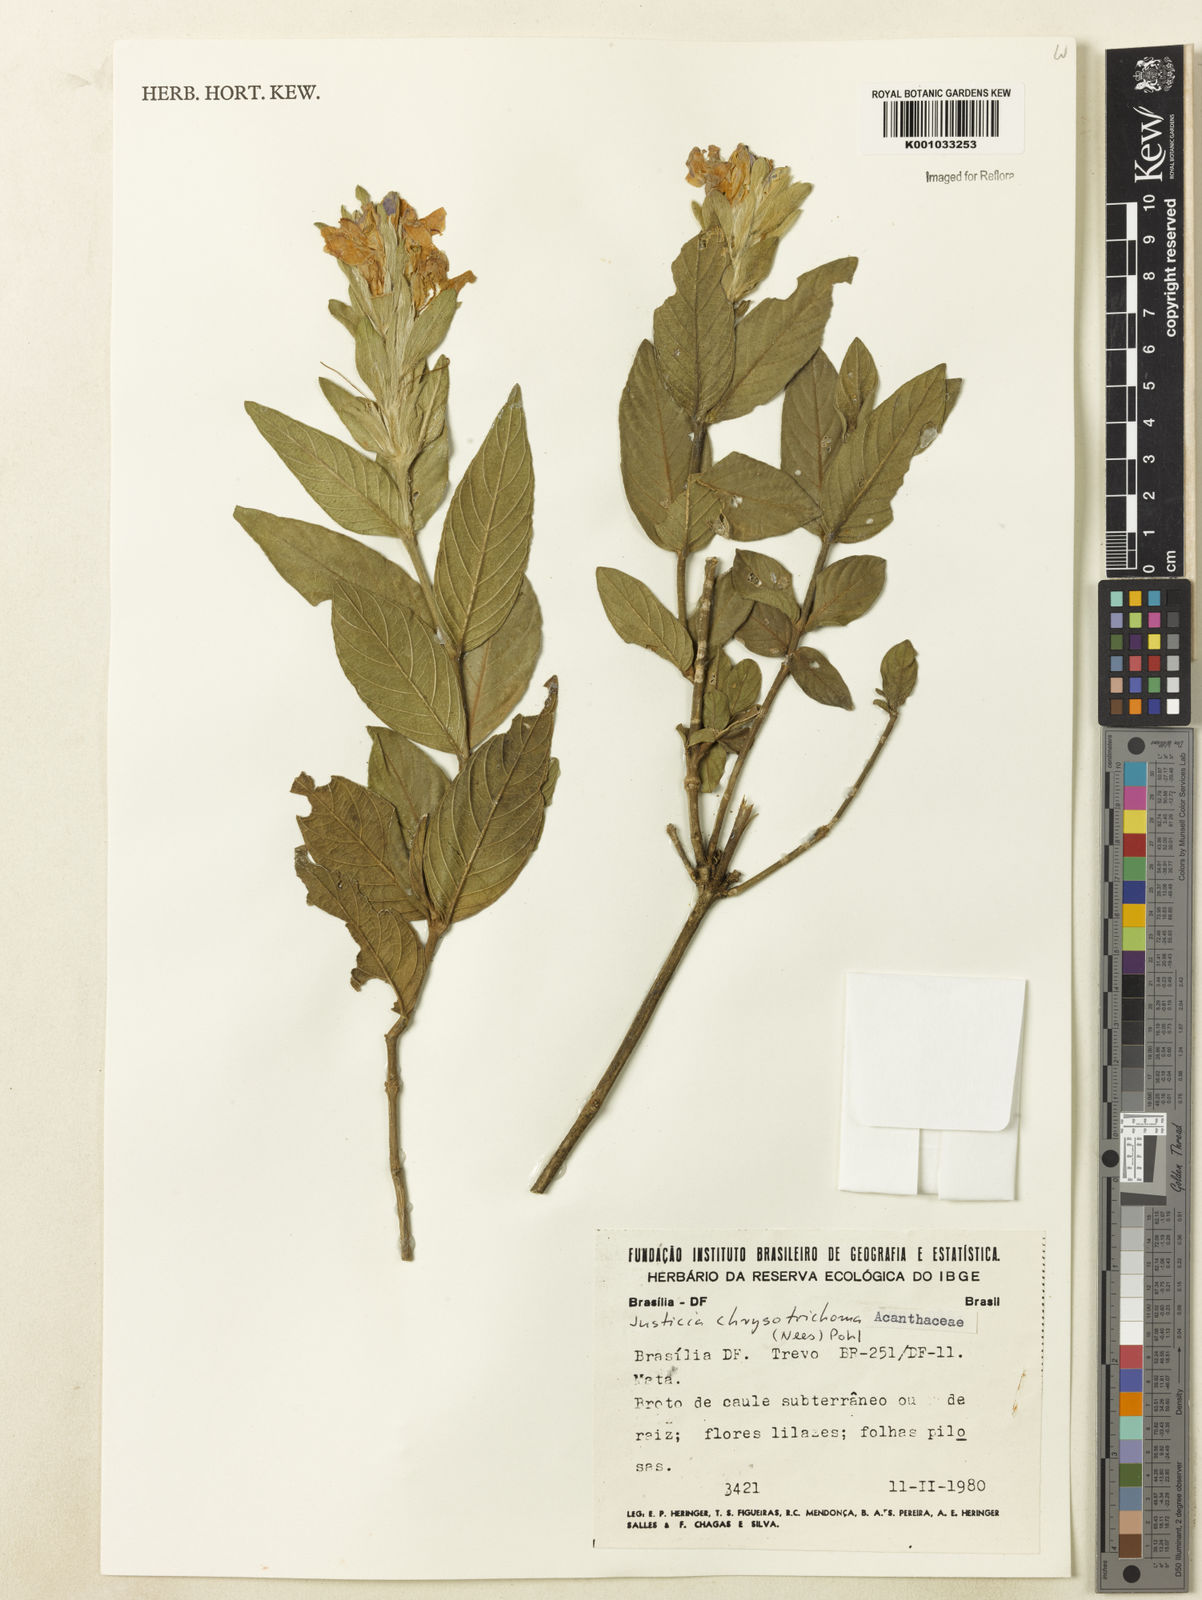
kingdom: Plantae
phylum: Tracheophyta
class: Magnoliopsida
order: Lamiales
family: Acanthaceae
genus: Justicia
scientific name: Justicia chrysotrichoma
